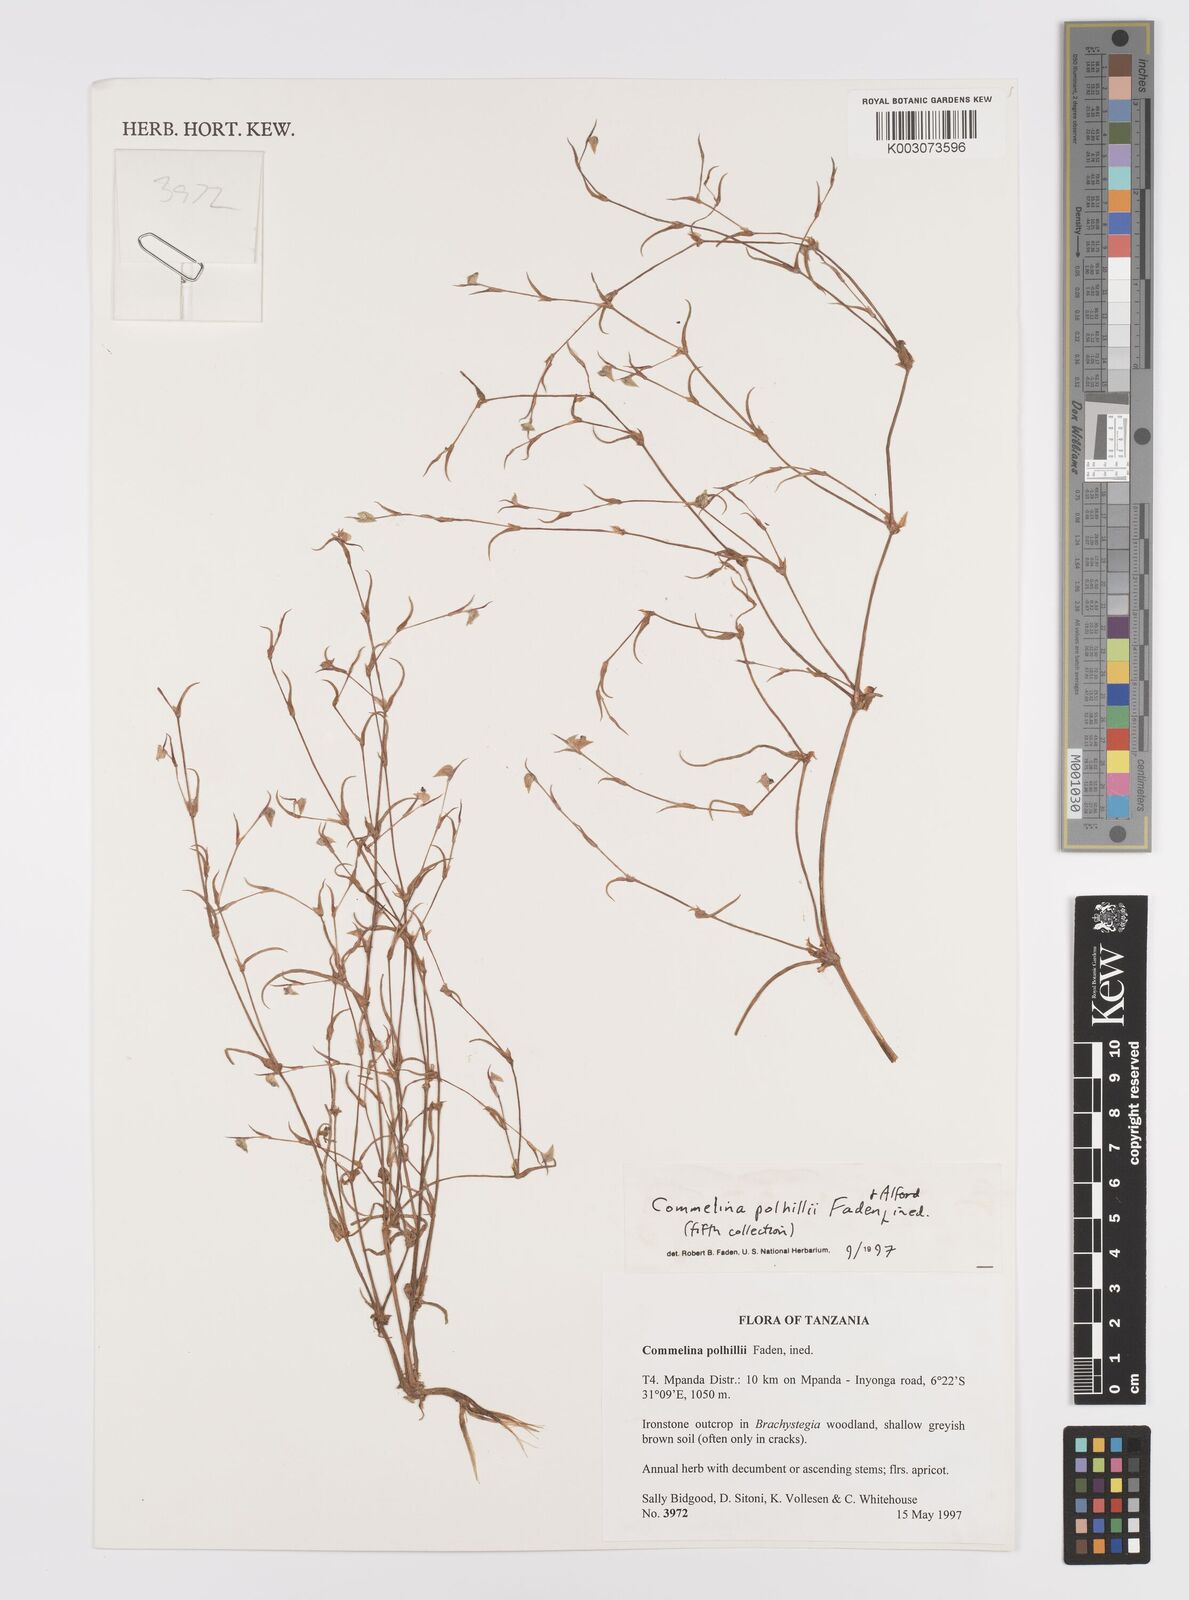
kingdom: Plantae
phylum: Tracheophyta
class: Liliopsida
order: Commelinales
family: Commelinaceae
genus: Commelina
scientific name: Commelina polhillii
